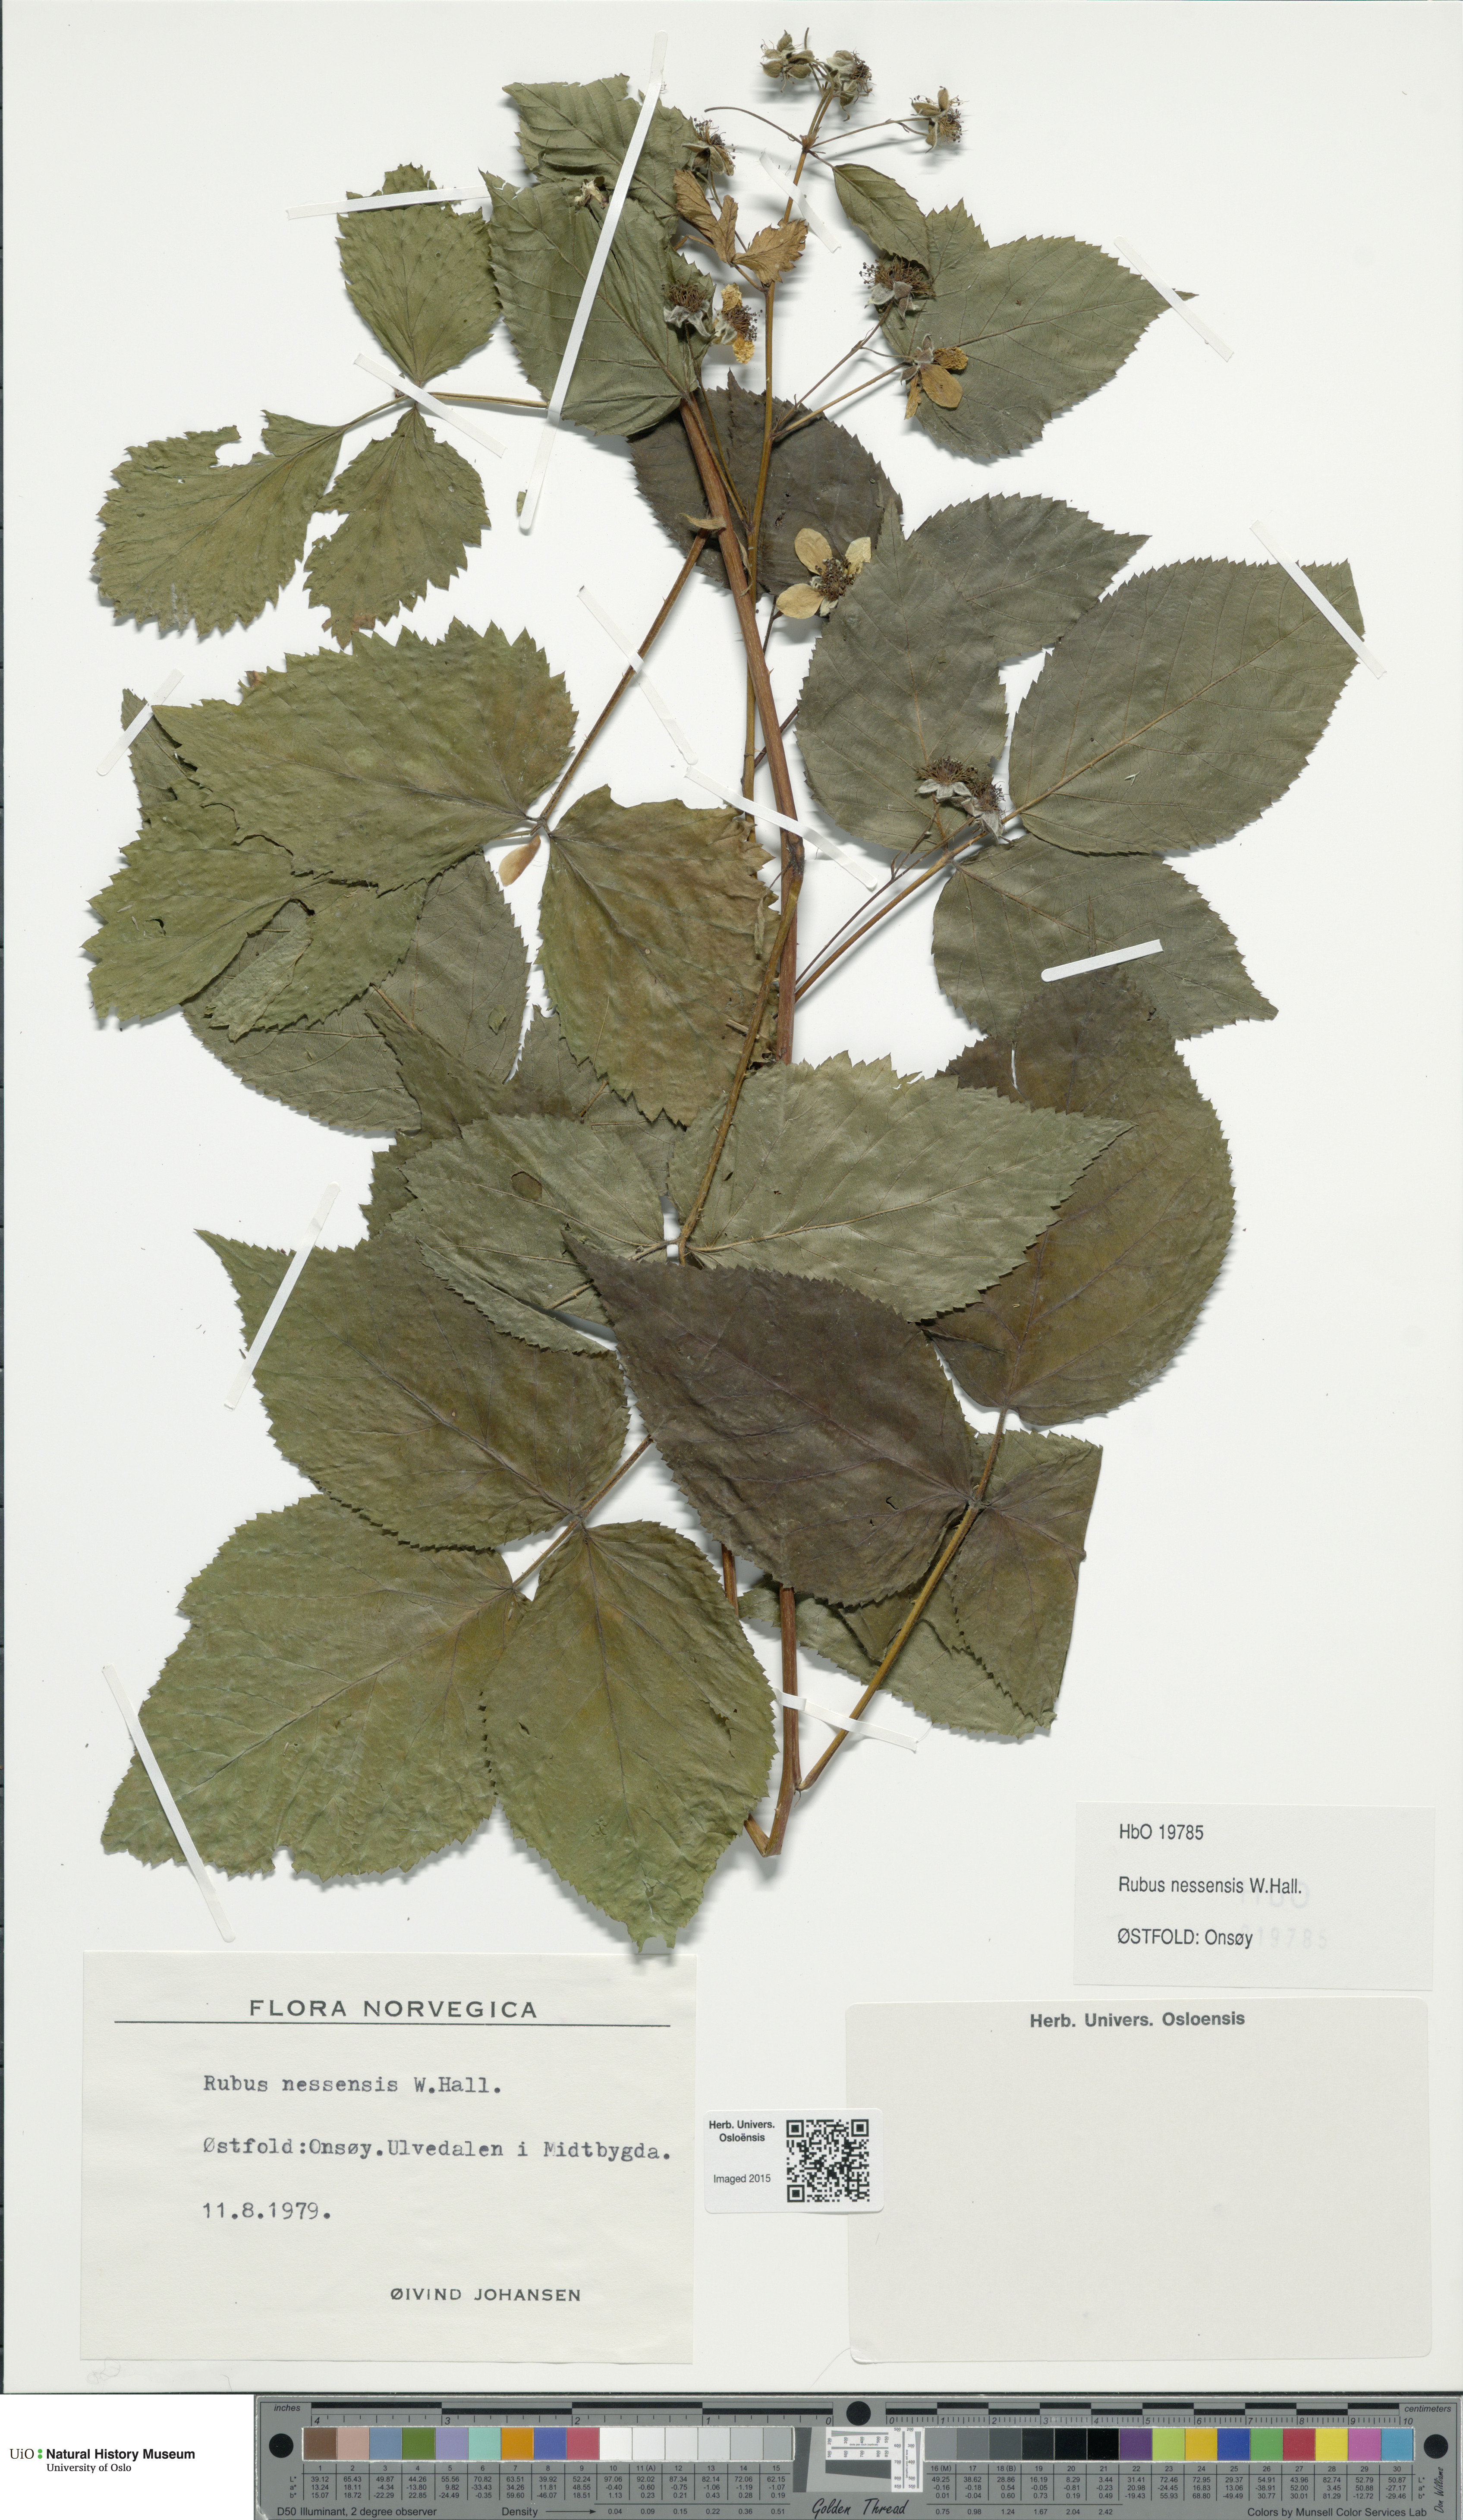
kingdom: Plantae
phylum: Tracheophyta
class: Magnoliopsida
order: Rosales
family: Rosaceae
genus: Rubus
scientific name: Rubus polonicus
